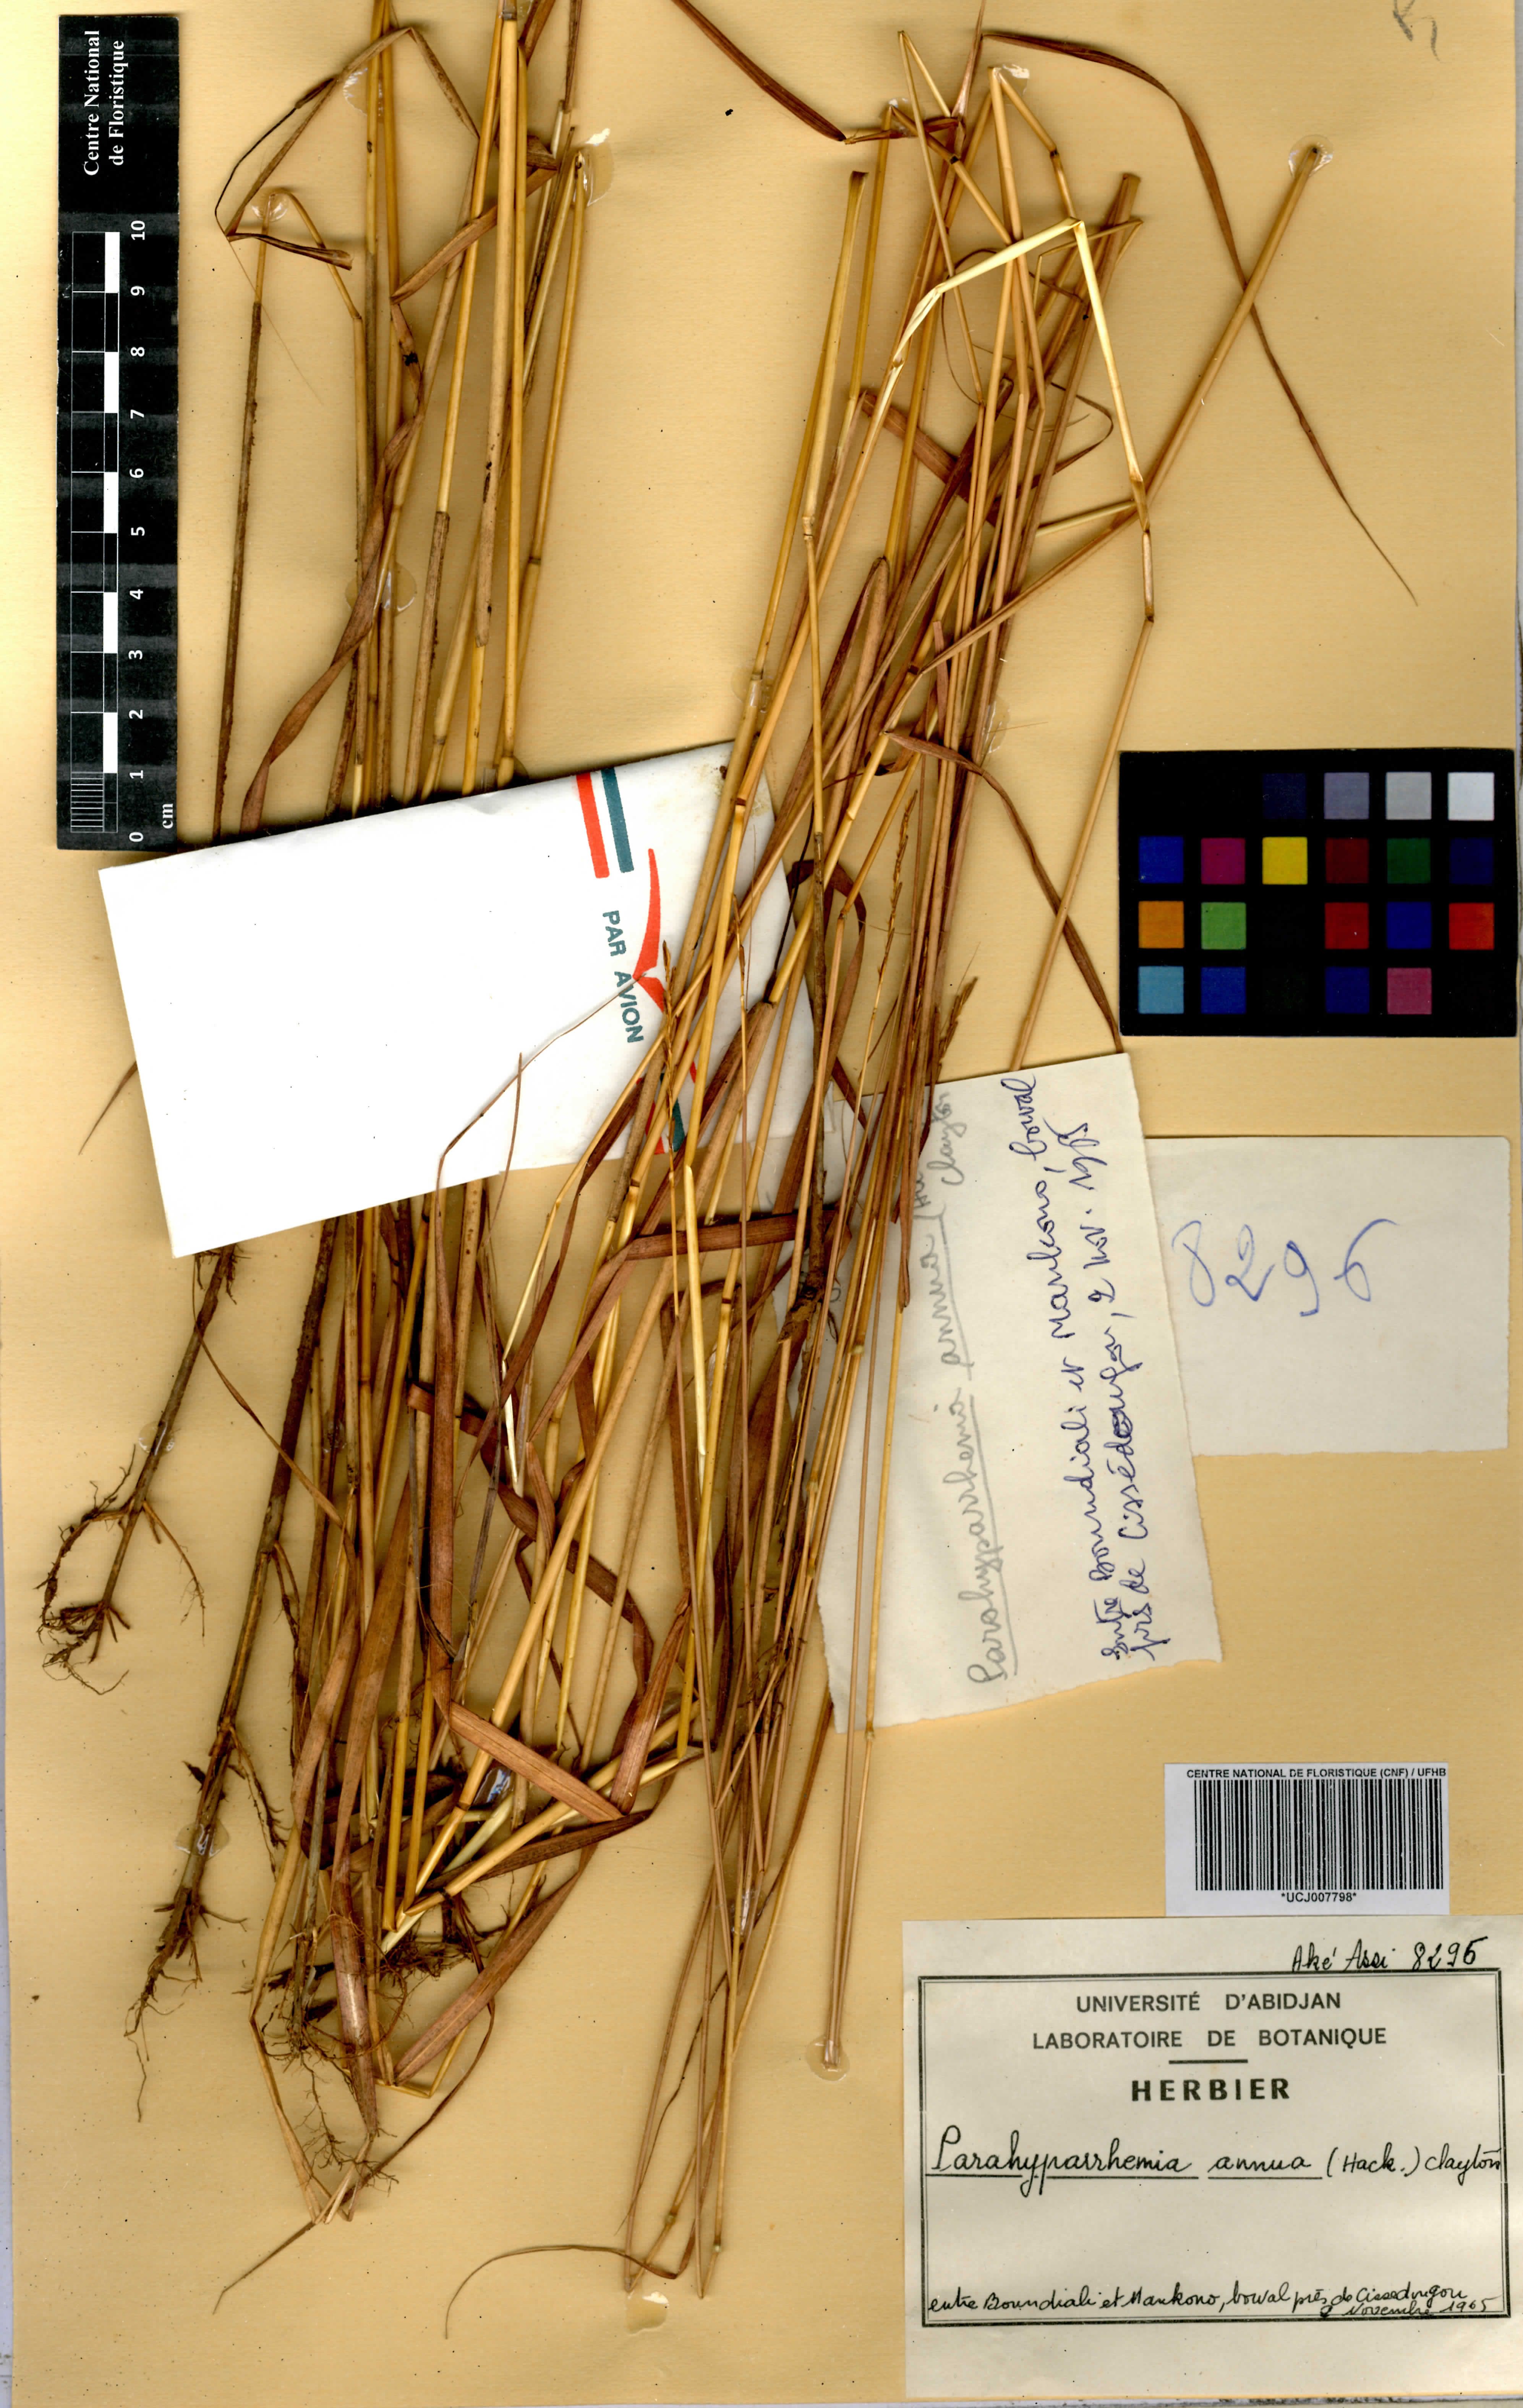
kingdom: Plantae
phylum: Tracheophyta
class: Liliopsida
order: Poales
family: Poaceae
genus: Parahyparrhenia
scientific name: Parahyparrhenia annua
